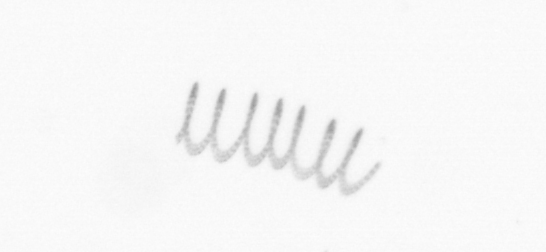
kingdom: Chromista
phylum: Ochrophyta
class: Bacillariophyceae
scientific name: Bacillariophyceae
